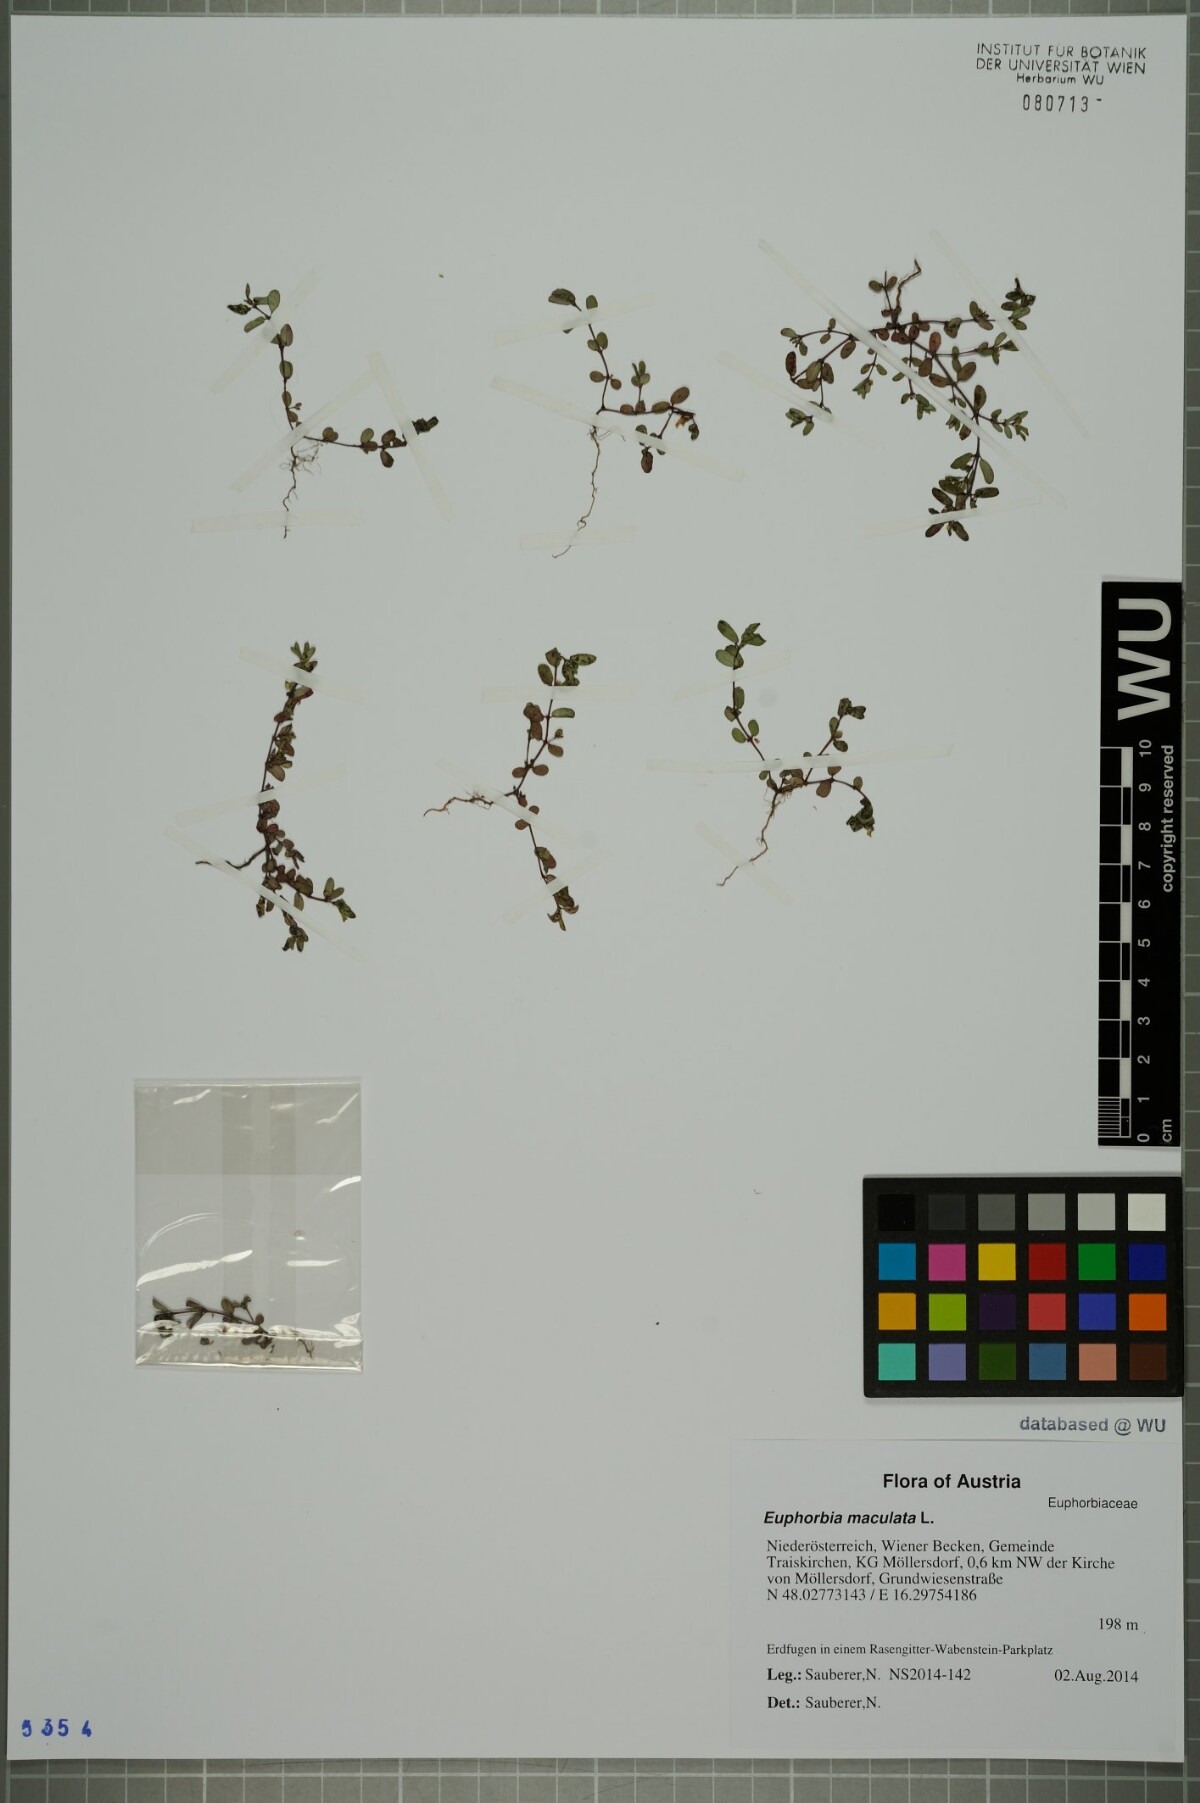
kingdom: Plantae
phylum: Tracheophyta
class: Magnoliopsida
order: Malpighiales
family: Euphorbiaceae
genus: Euphorbia
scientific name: Euphorbia maculata
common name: Spotted spurge
